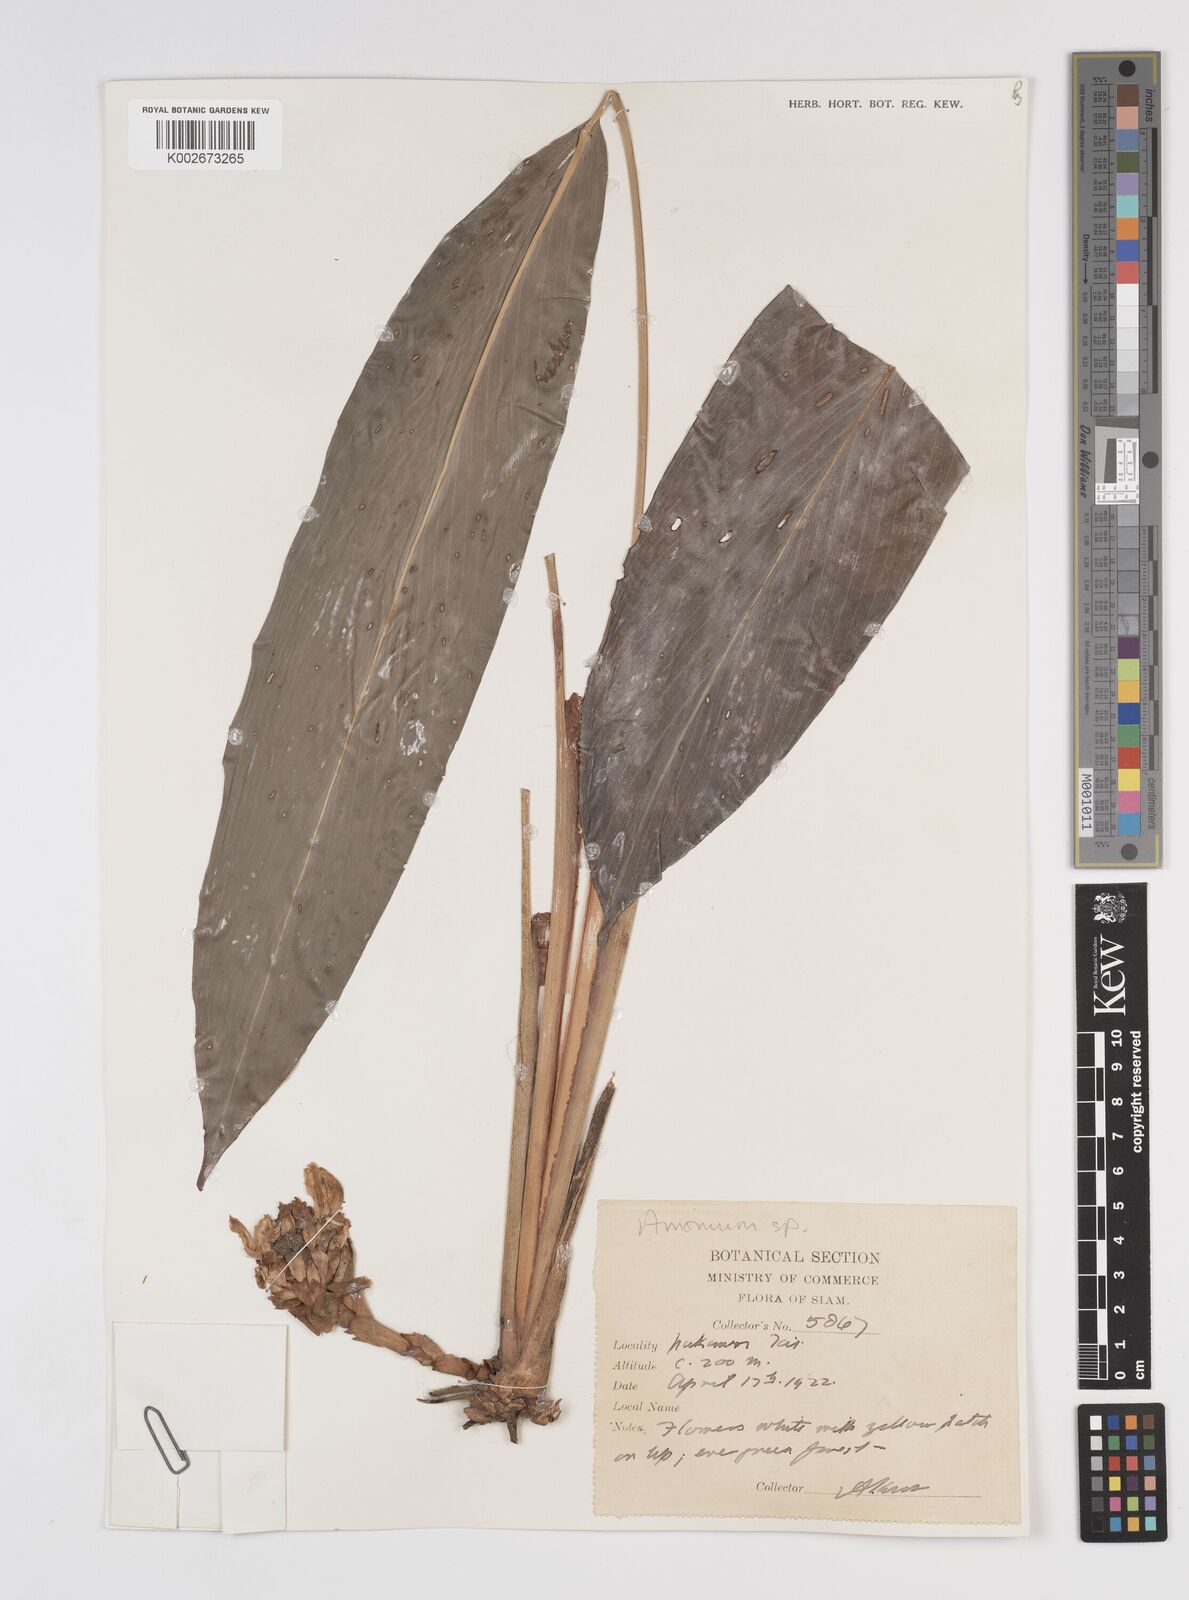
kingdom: Plantae
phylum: Tracheophyta
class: Liliopsida
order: Zingiberales
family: Zingiberaceae
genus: Amomum
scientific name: Amomum
